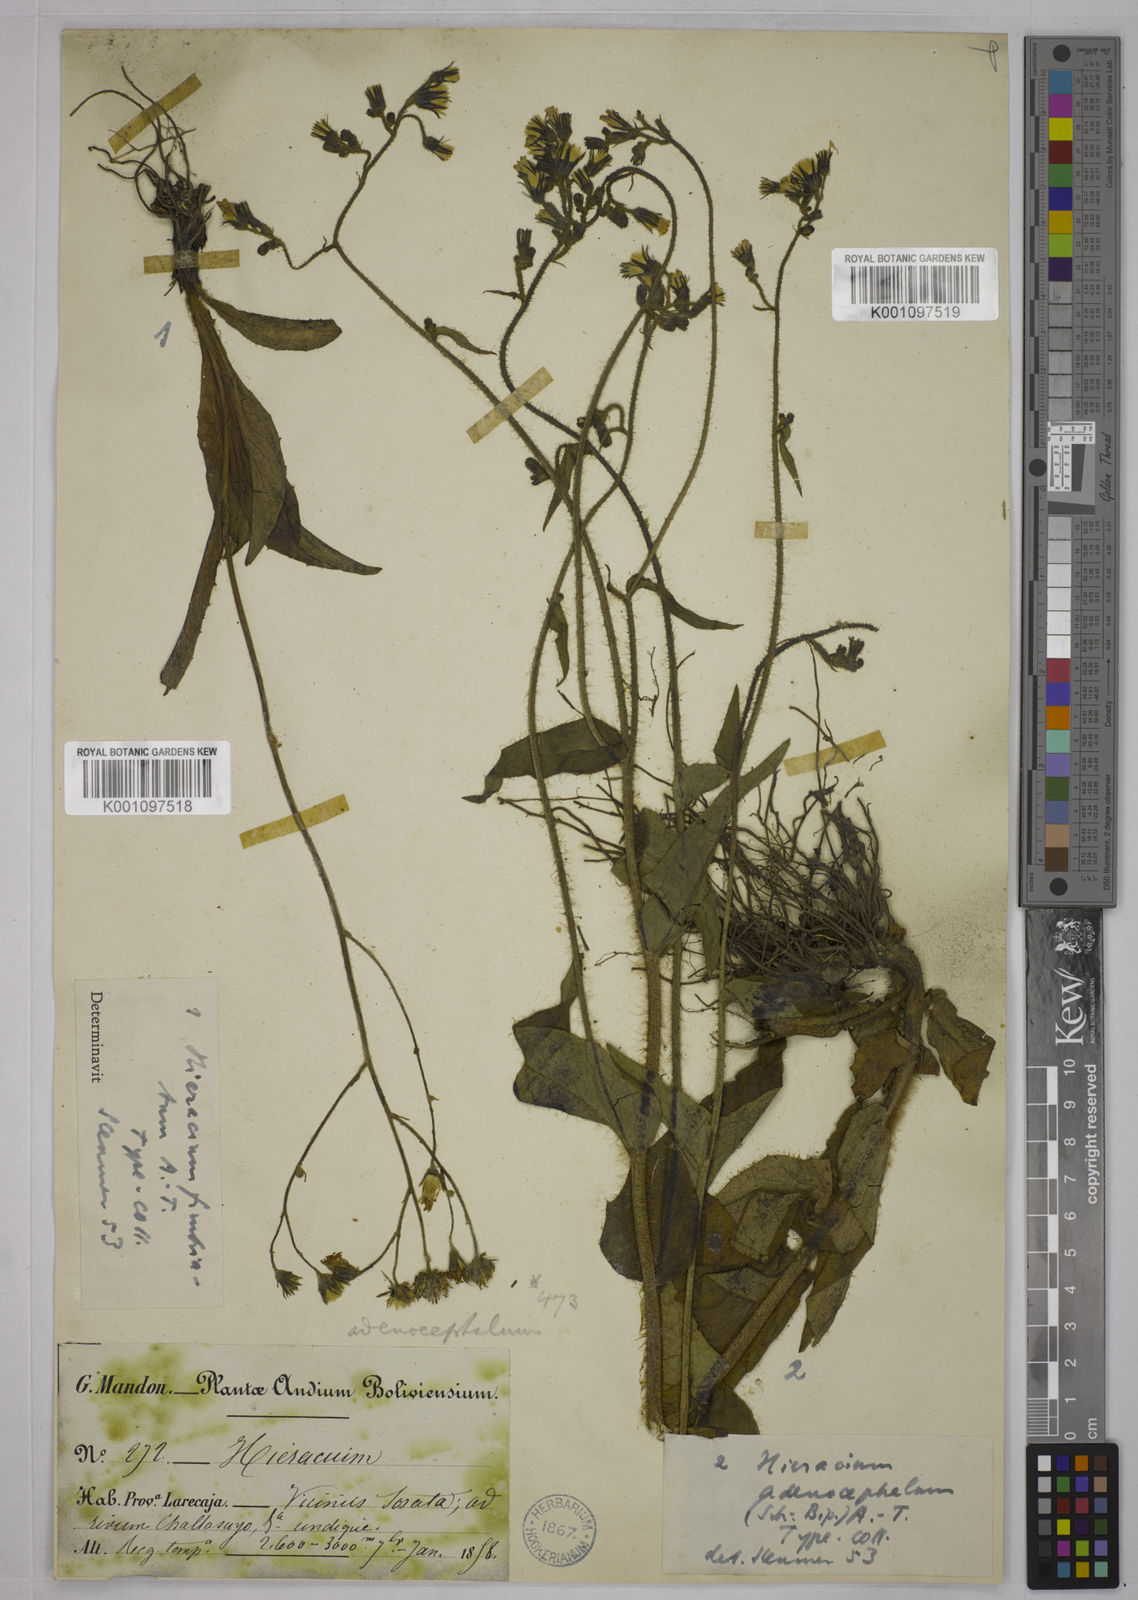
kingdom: Plantae
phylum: Tracheophyta
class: Magnoliopsida
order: Asterales
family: Asteraceae
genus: Hieracium
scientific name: Hieracium mandonii
